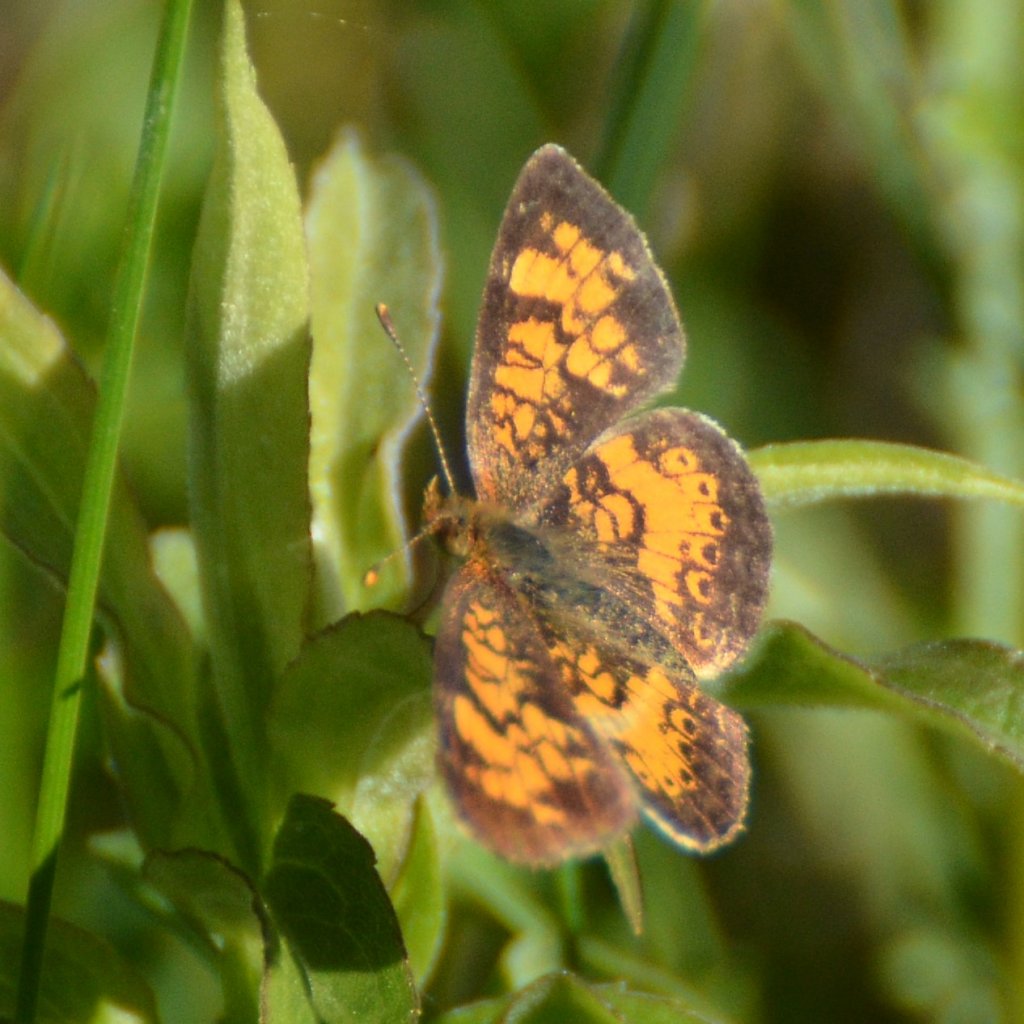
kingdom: Animalia
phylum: Arthropoda
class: Insecta
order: Lepidoptera
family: Nymphalidae
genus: Phyciodes
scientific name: Phyciodes tharos
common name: Northern Crescent
